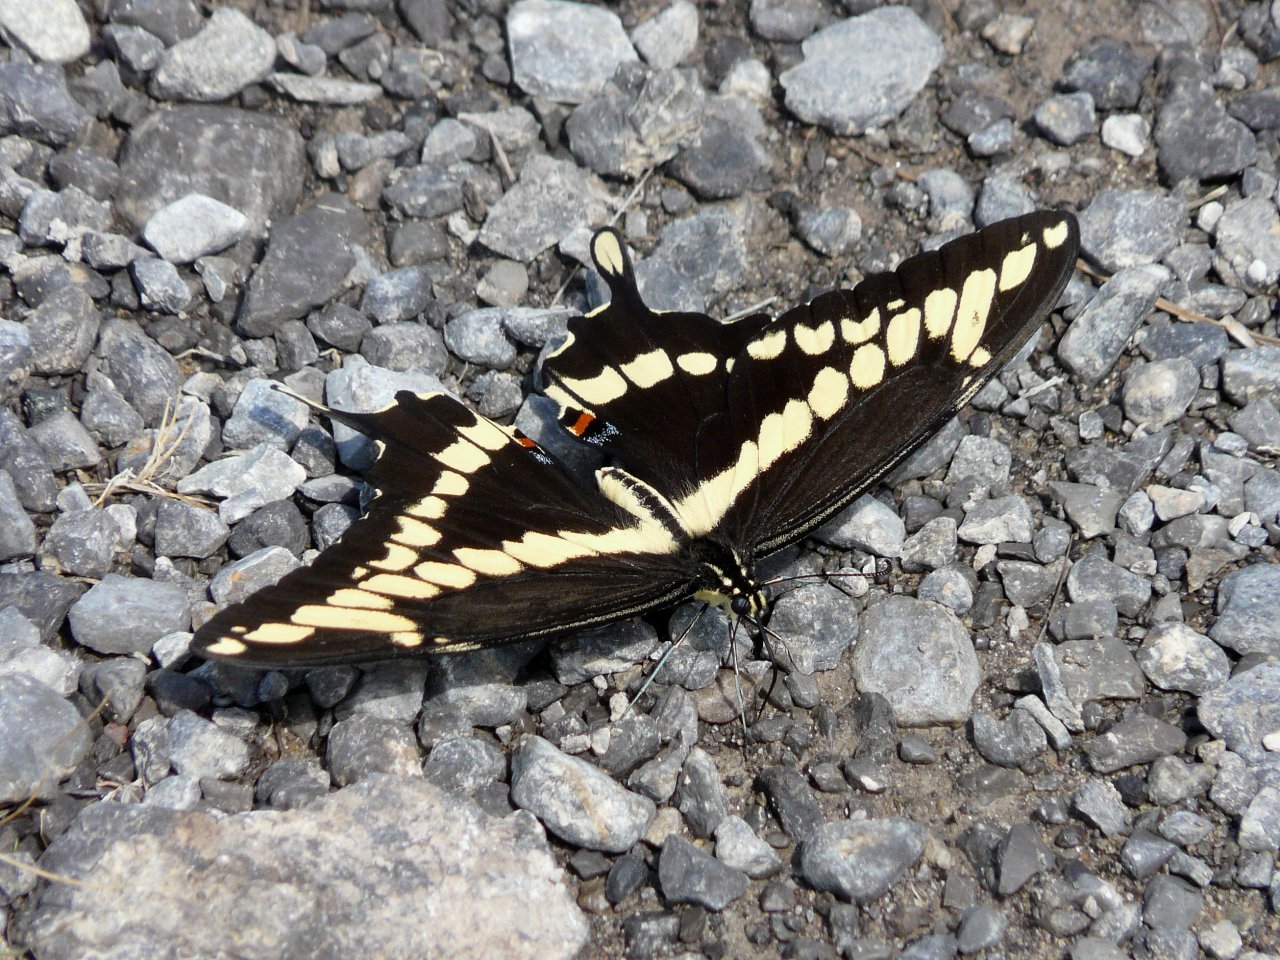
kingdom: Animalia
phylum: Arthropoda
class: Insecta
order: Lepidoptera
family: Papilionidae
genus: Papilio
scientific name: Papilio cresphontes
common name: Eastern Giant Swallowtail
